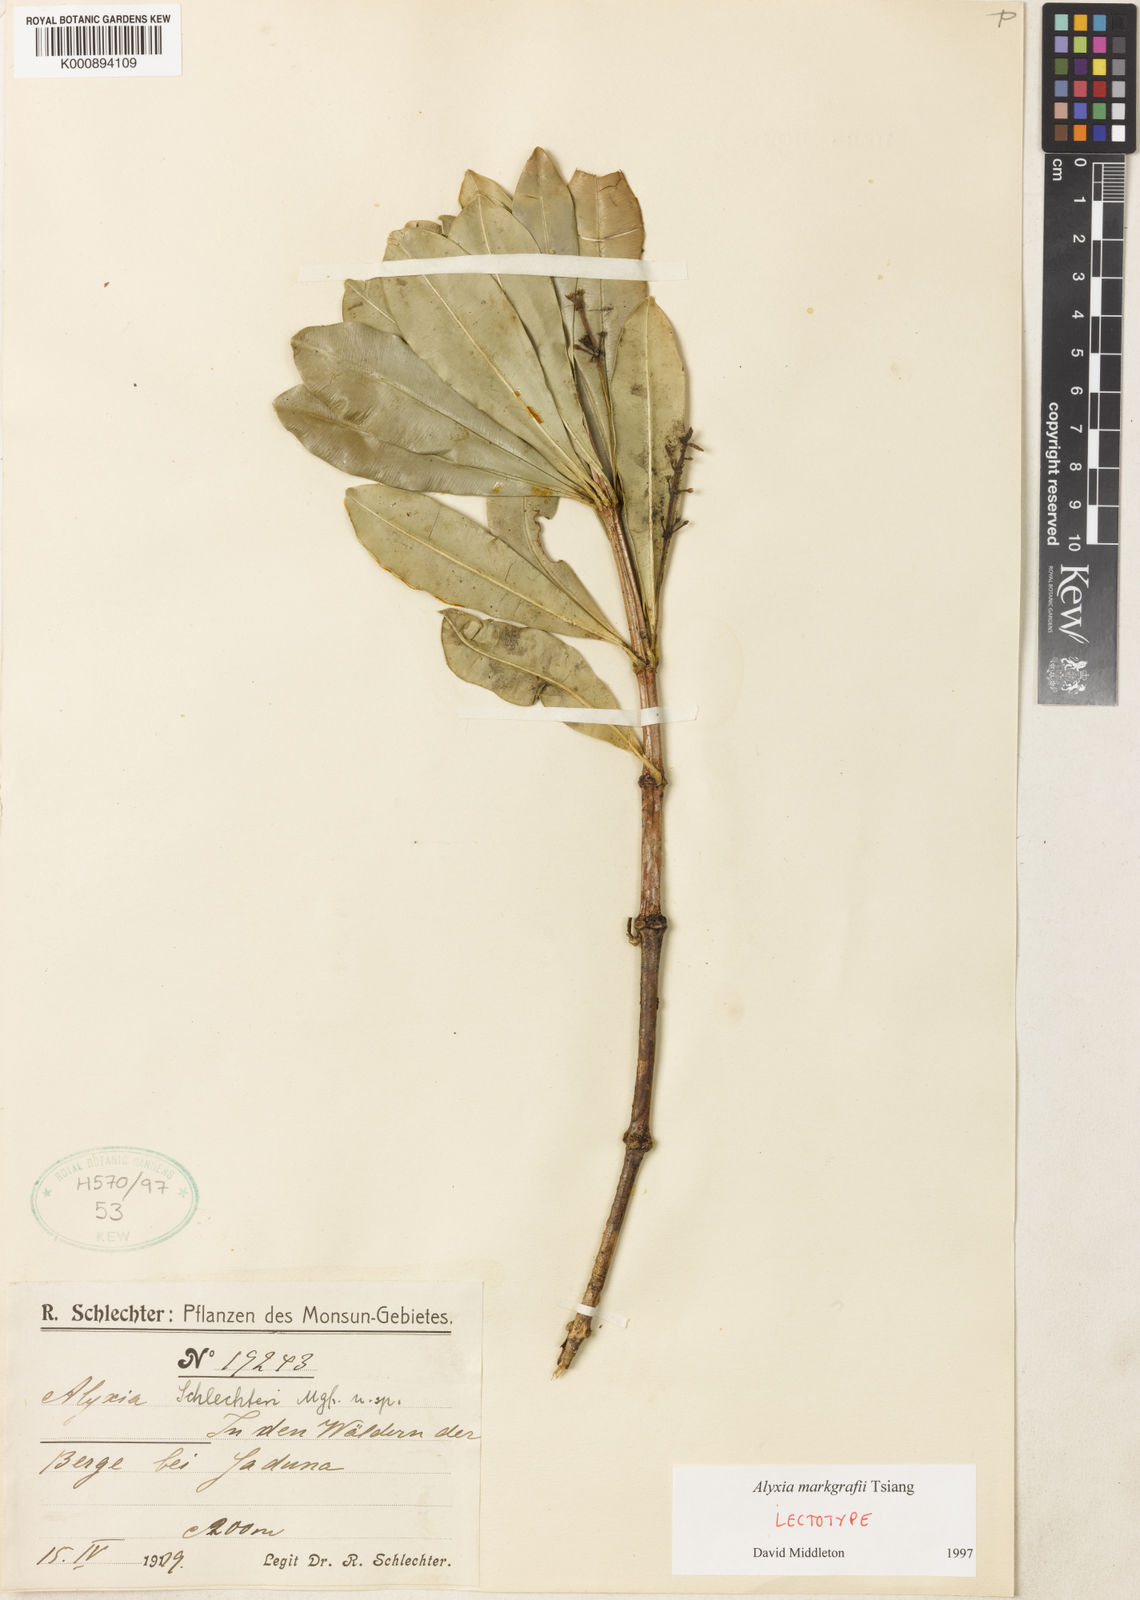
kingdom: Plantae
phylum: Tracheophyta
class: Magnoliopsida
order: Gentianales
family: Apocynaceae
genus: Alyxia
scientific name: Alyxia markgrafii
